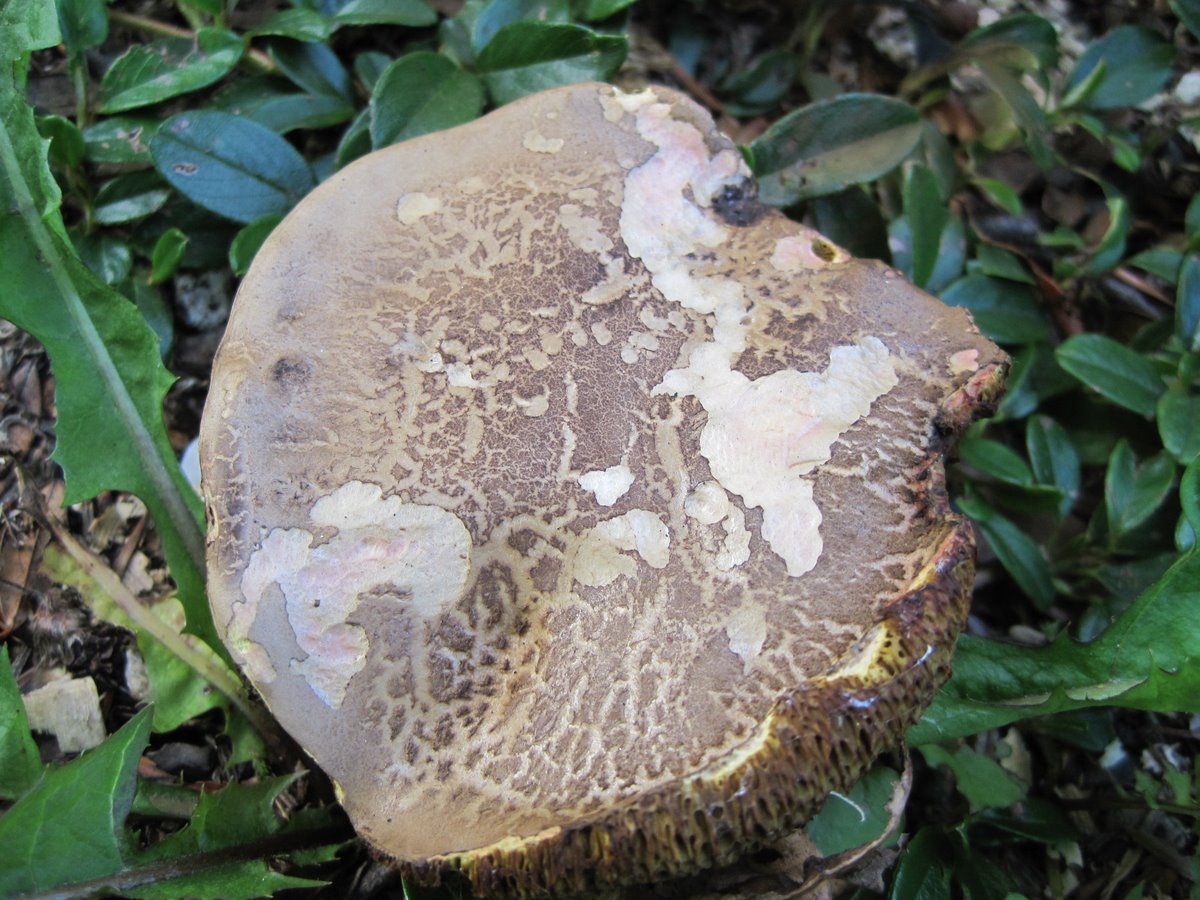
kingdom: Fungi
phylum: Basidiomycota
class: Agaricomycetes
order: Boletales
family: Boletaceae
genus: Xerocomellus
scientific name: Xerocomellus chrysenteron
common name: rødsprukken rørhat
